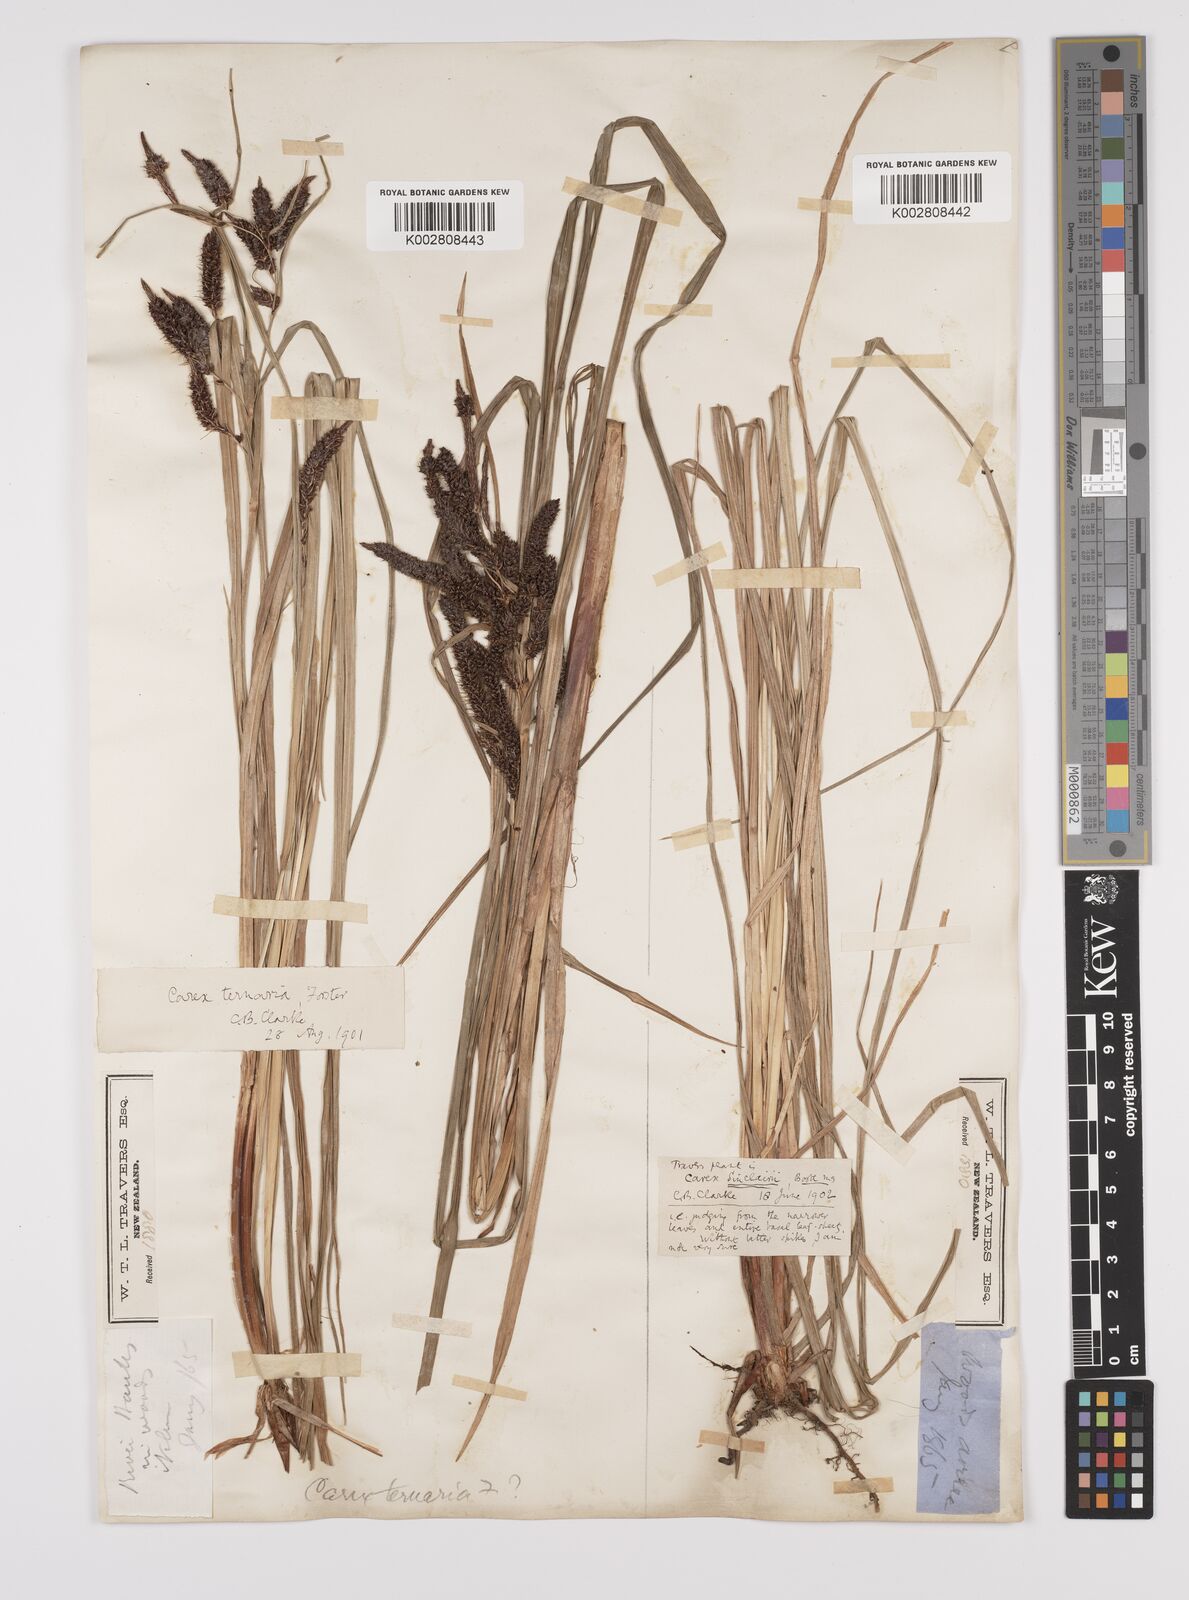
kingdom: Plantae
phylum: Tracheophyta
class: Liliopsida
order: Poales
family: Cyperaceae
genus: Carex
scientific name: Carex lessoniana
